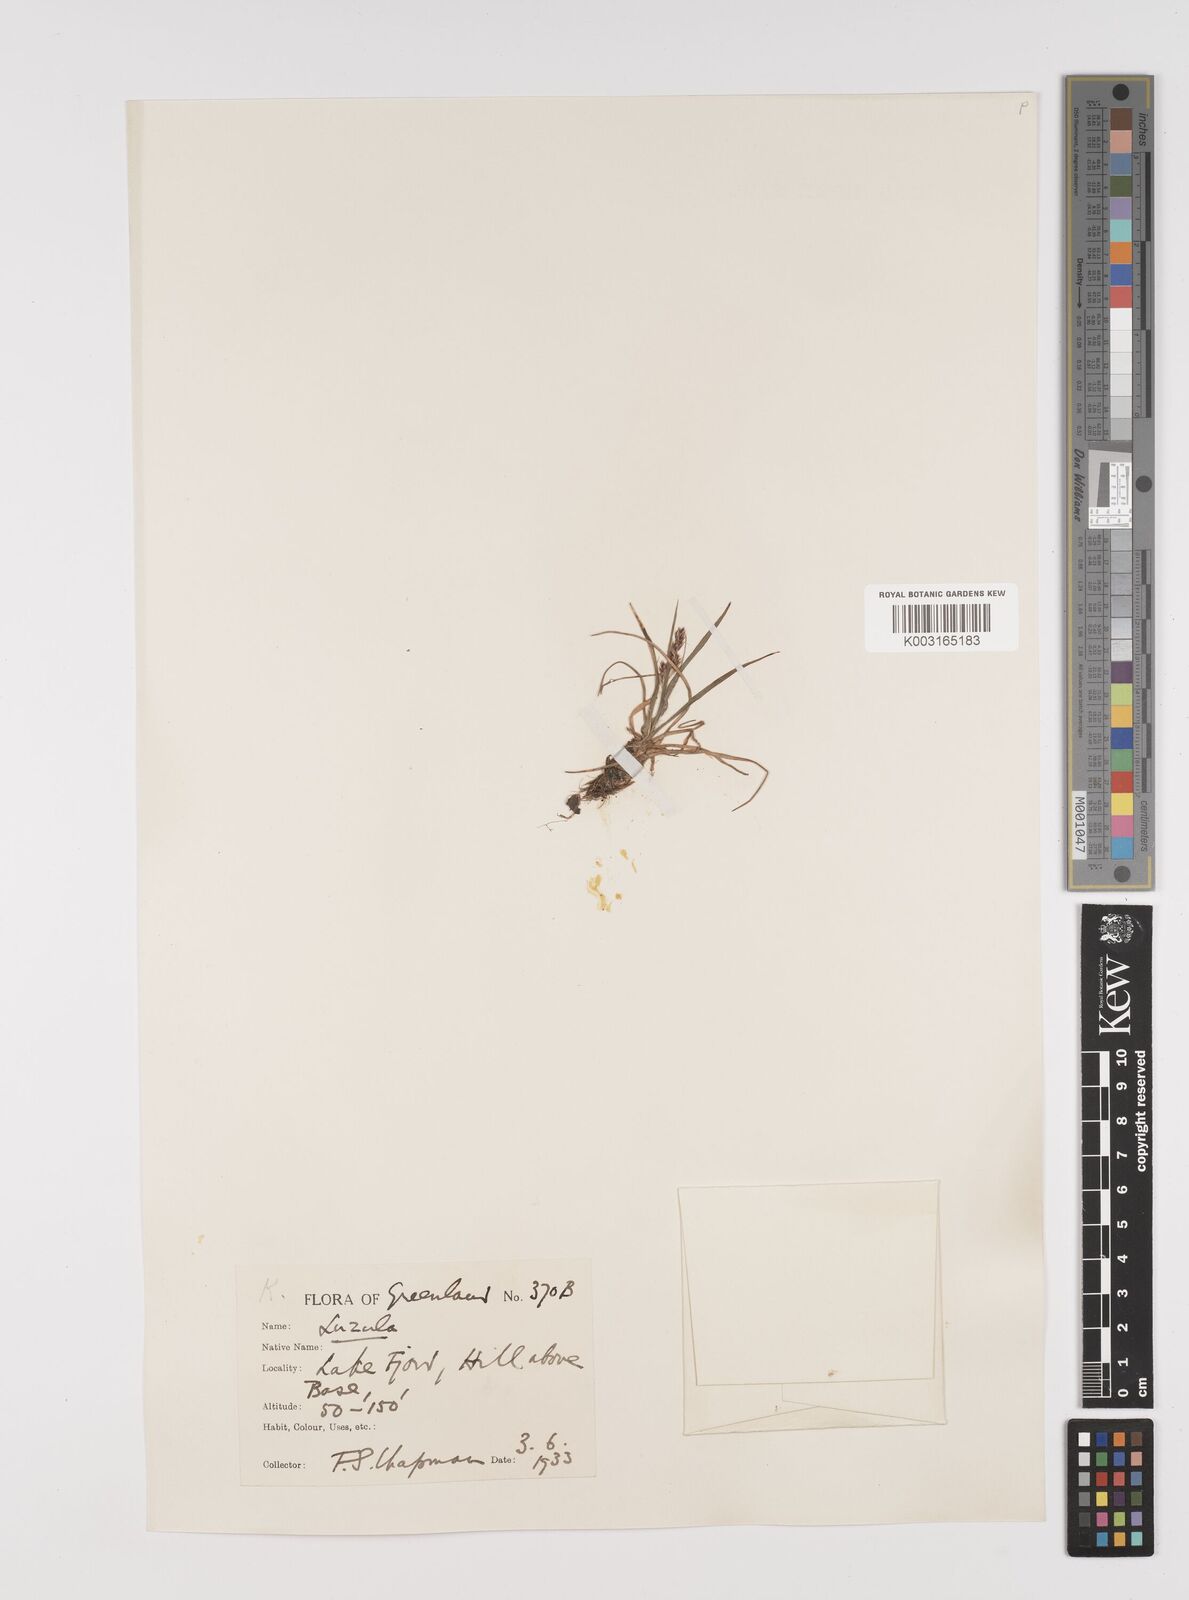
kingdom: Plantae
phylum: Tracheophyta
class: Liliopsida
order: Poales
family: Juncaceae
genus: Luzula
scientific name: Luzula
